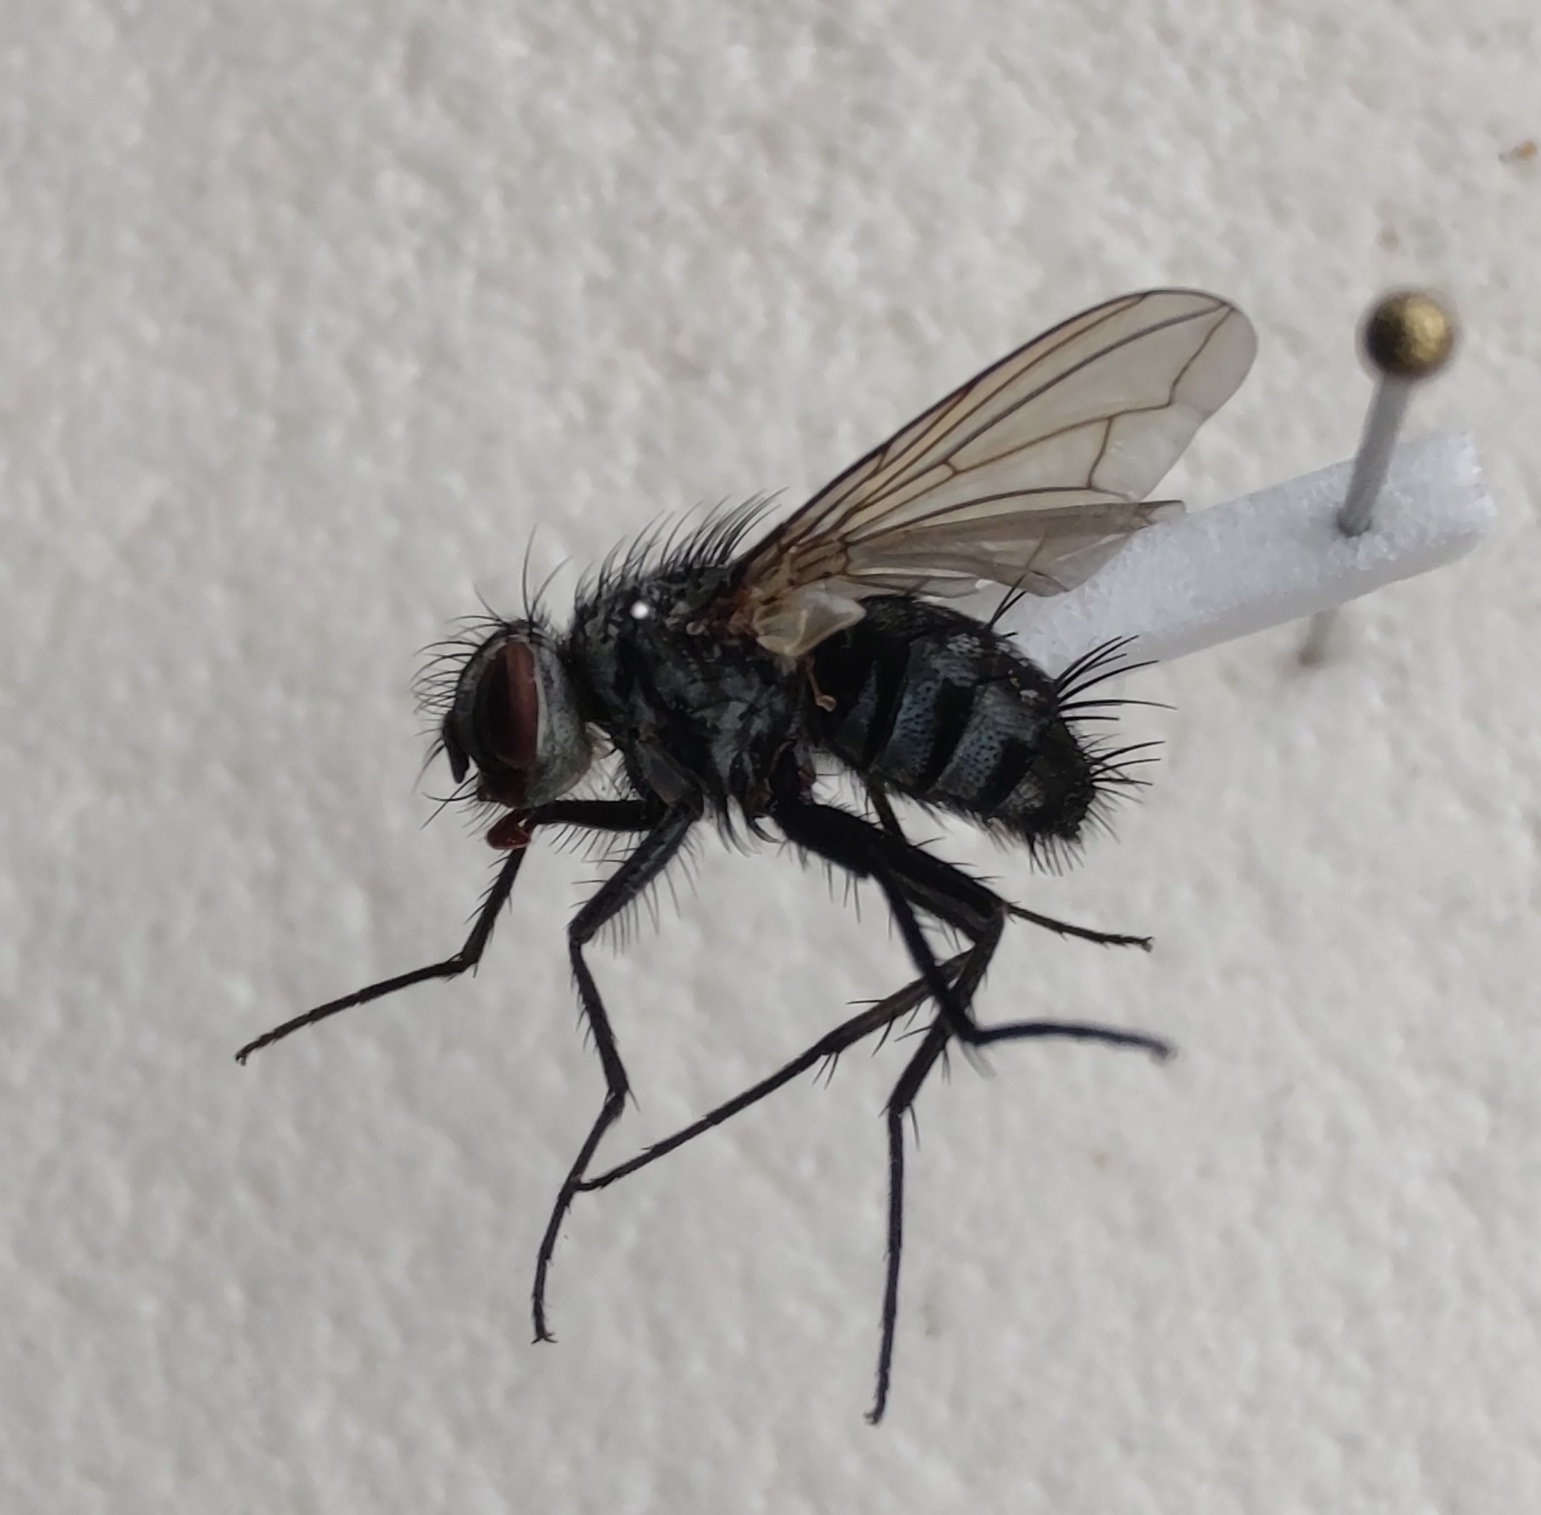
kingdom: Animalia
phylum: Arthropoda
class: Insecta
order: Diptera
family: Tachinidae
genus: Dinera
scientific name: Dinera ferina
